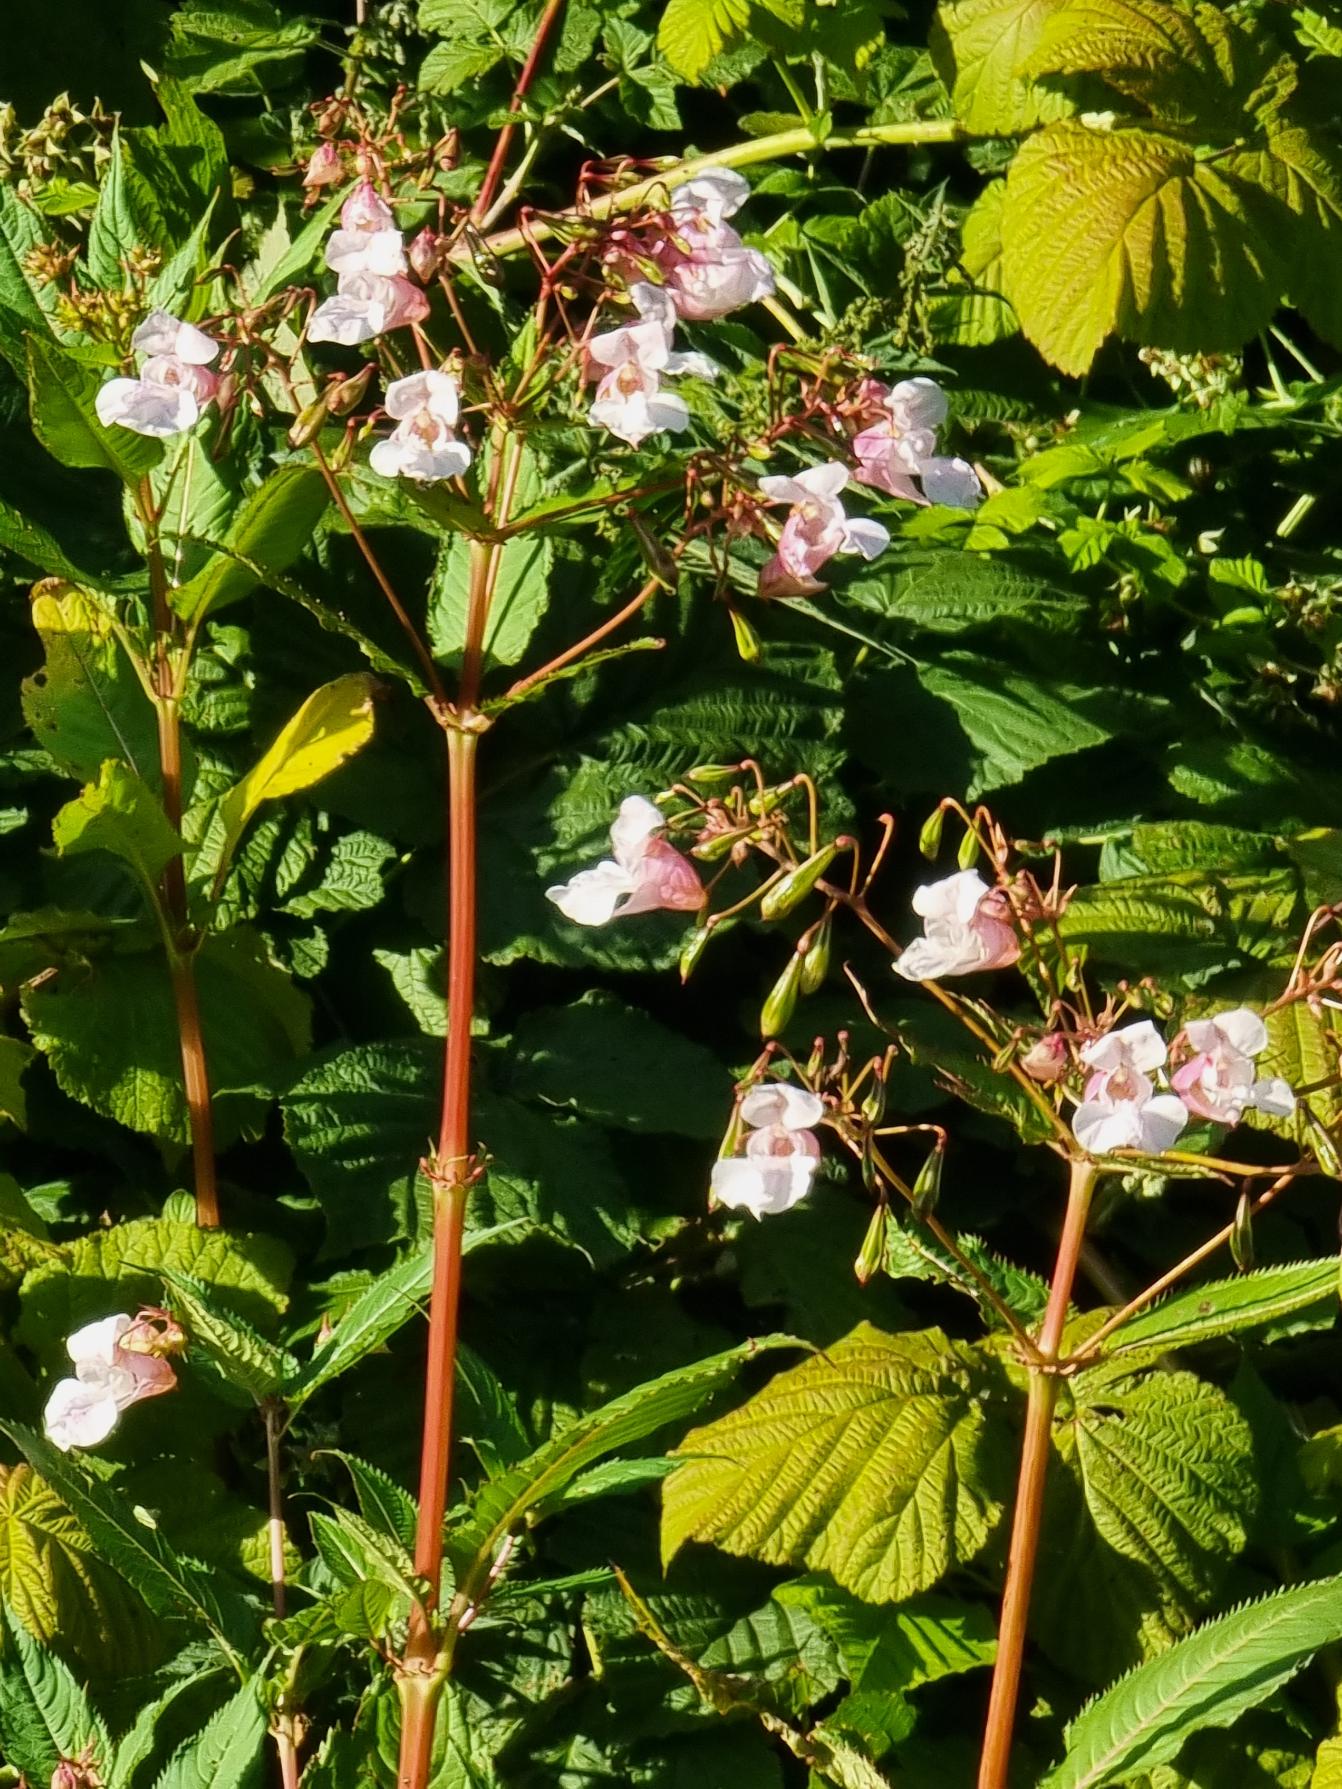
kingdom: Plantae
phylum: Tracheophyta
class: Magnoliopsida
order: Ericales
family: Balsaminaceae
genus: Impatiens
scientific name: Impatiens glandulifera
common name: Kæmpe-balsamin
